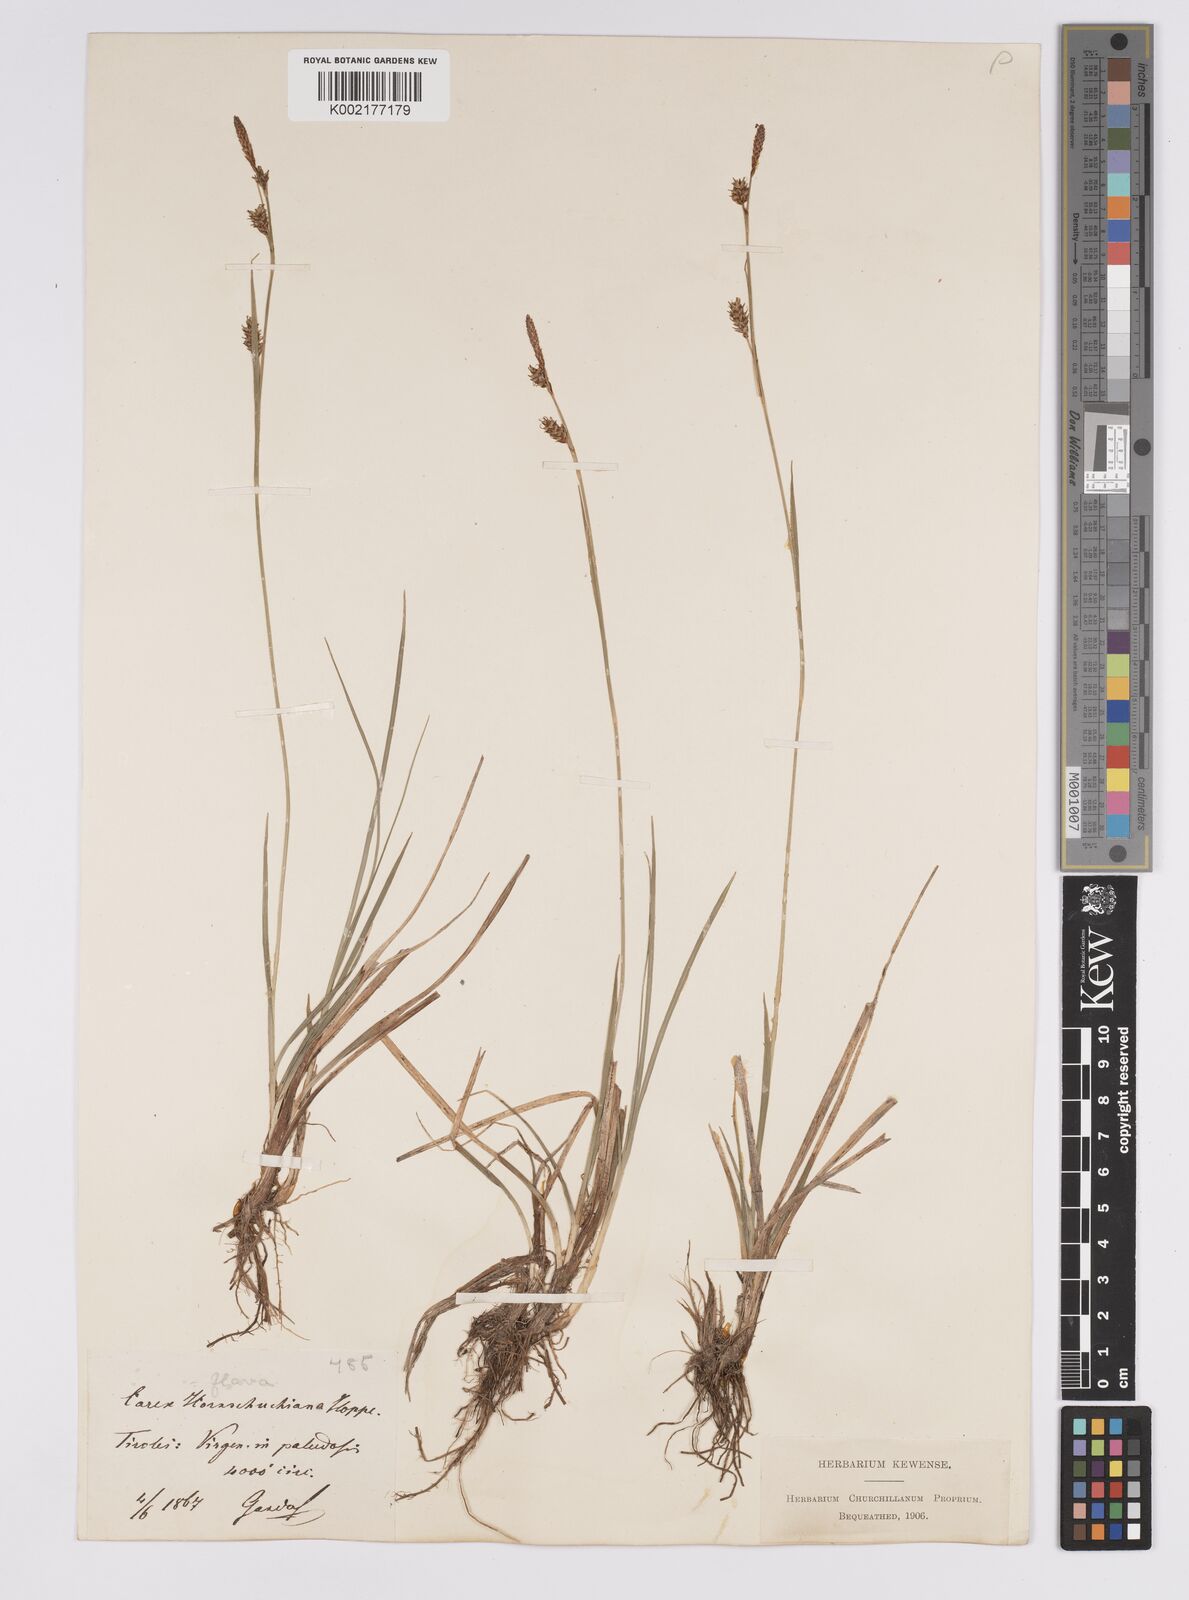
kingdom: Plantae
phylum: Tracheophyta
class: Liliopsida
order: Poales
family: Cyperaceae
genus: Carex
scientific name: Carex hostiana
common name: Tawny sedge
